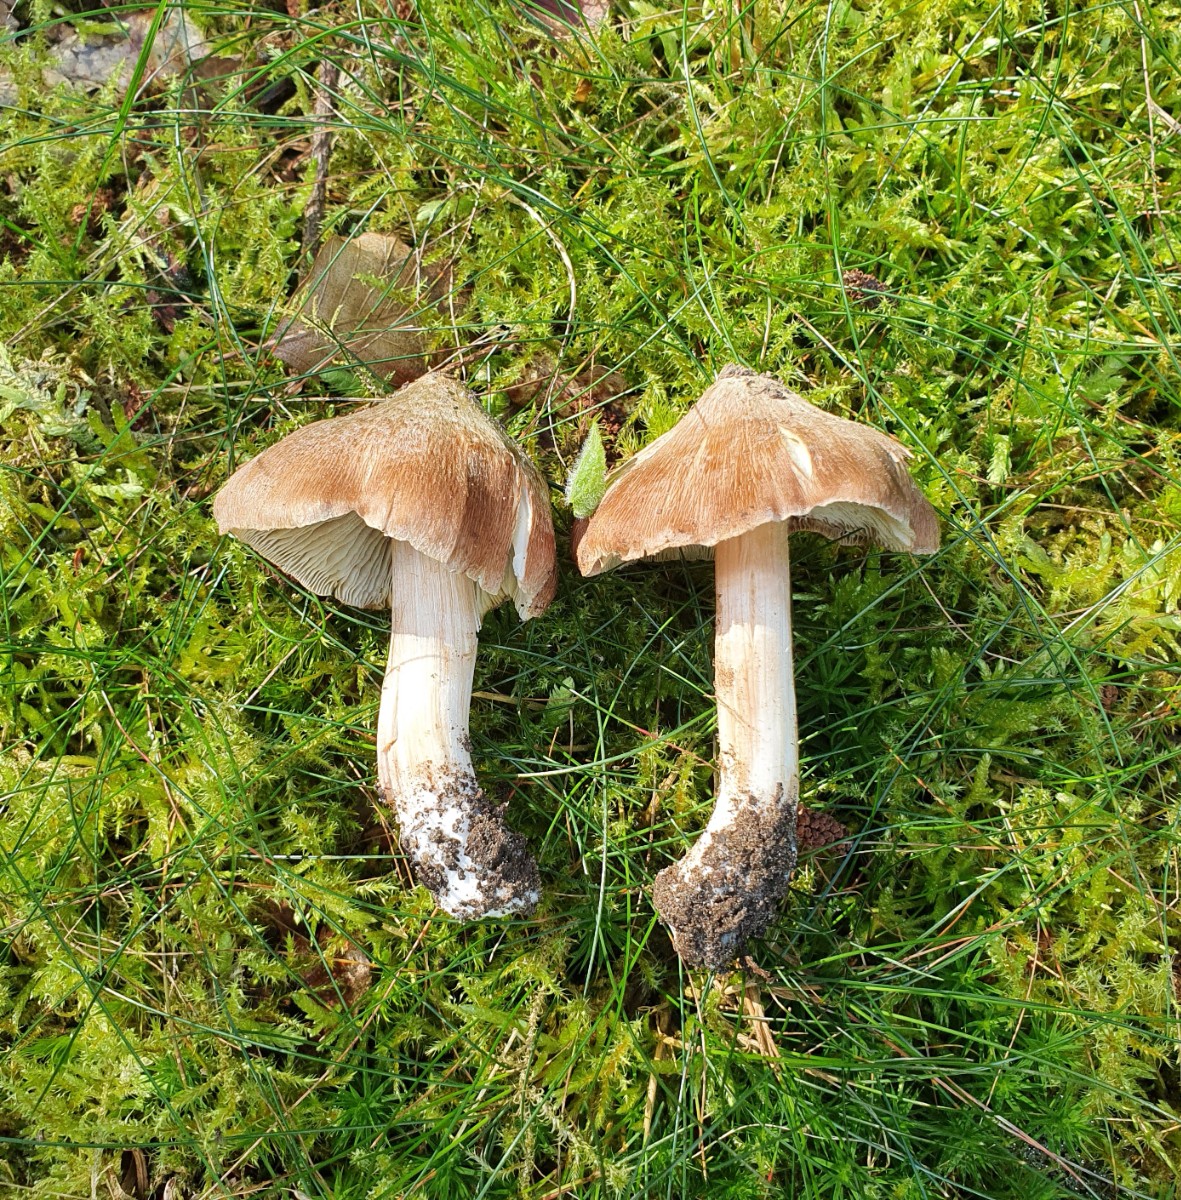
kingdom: Fungi
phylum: Basidiomycota
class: Agaricomycetes
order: Agaricales
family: Inocybaceae
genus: Inosperma
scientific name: Inosperma
